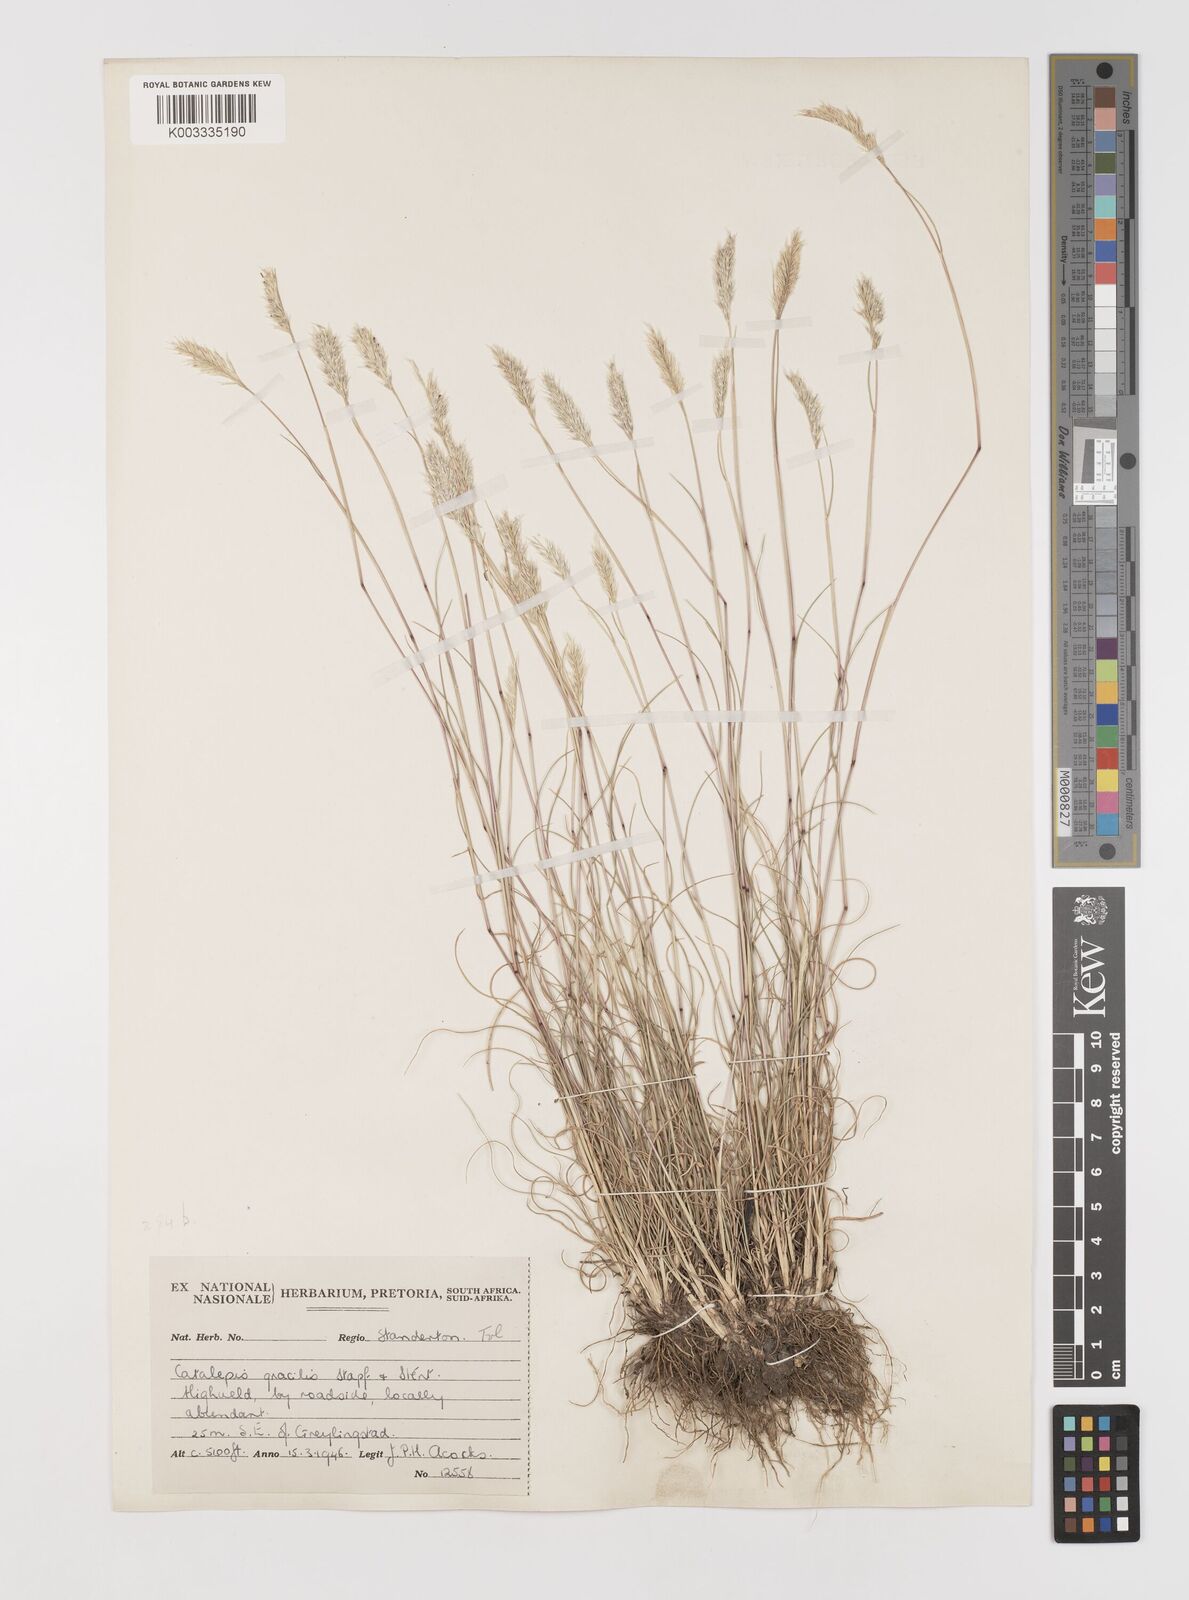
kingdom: Plantae
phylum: Tracheophyta
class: Liliopsida
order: Poales
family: Poaceae
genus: Catalepis
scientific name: Catalepis gracilis
